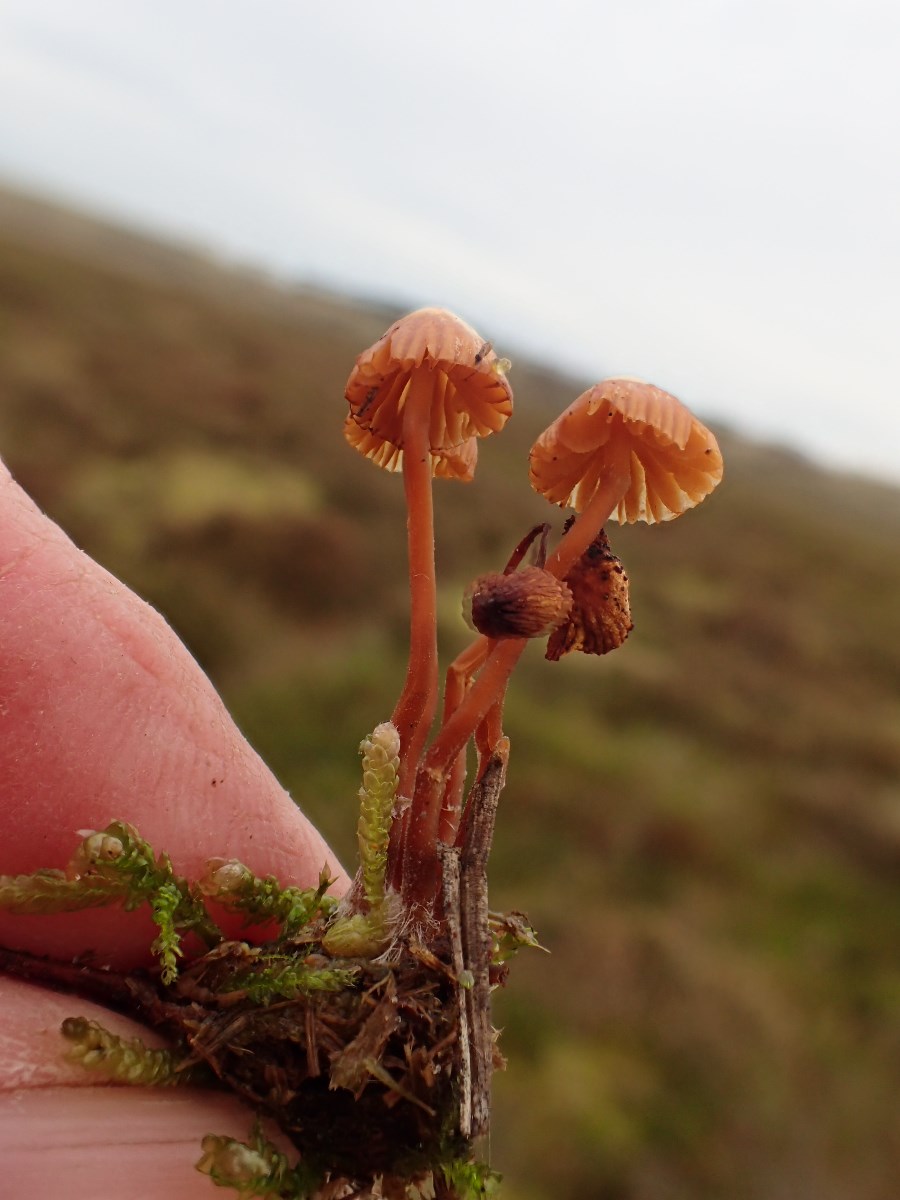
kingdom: Fungi
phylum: Basidiomycota
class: Agaricomycetes
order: Agaricales
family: Hymenogastraceae
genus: Galerina
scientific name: Galerina
